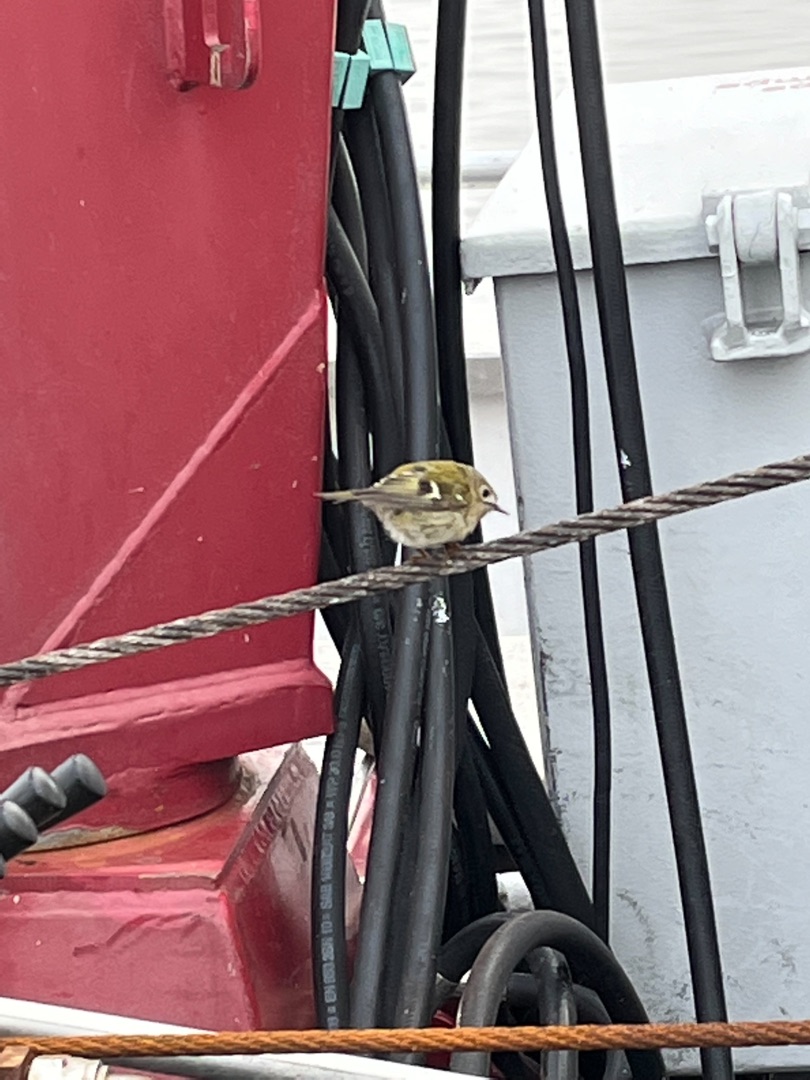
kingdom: Animalia
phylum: Chordata
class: Aves
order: Passeriformes
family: Regulidae
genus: Regulus
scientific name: Regulus regulus
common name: Fuglekonge
